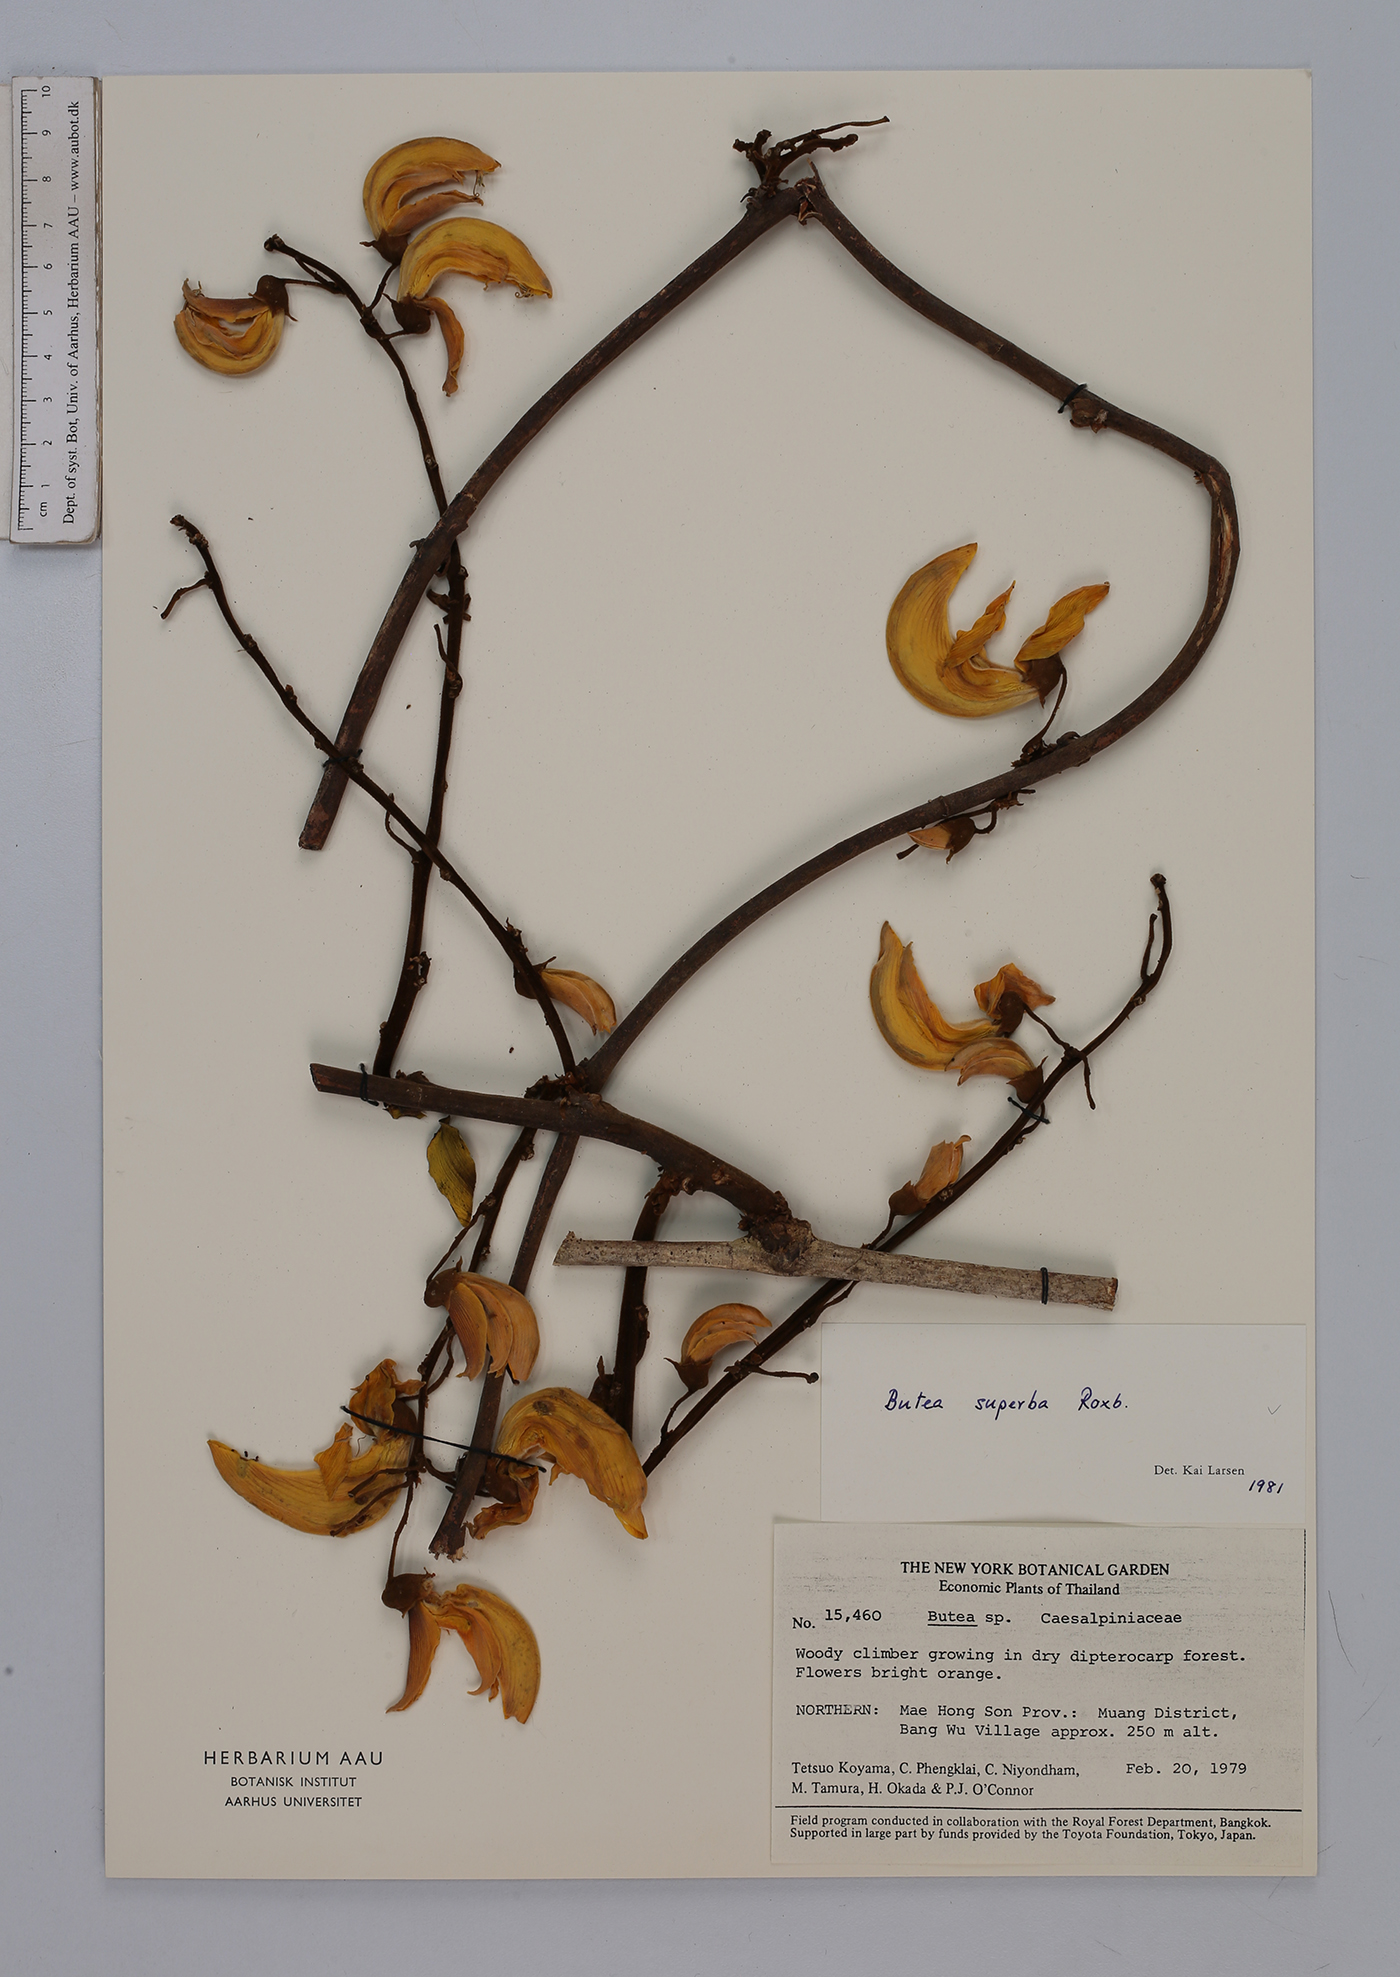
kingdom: Plantae
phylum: Tracheophyta
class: Magnoliopsida
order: Fabales
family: Fabaceae
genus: Butea
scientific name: Butea superba
